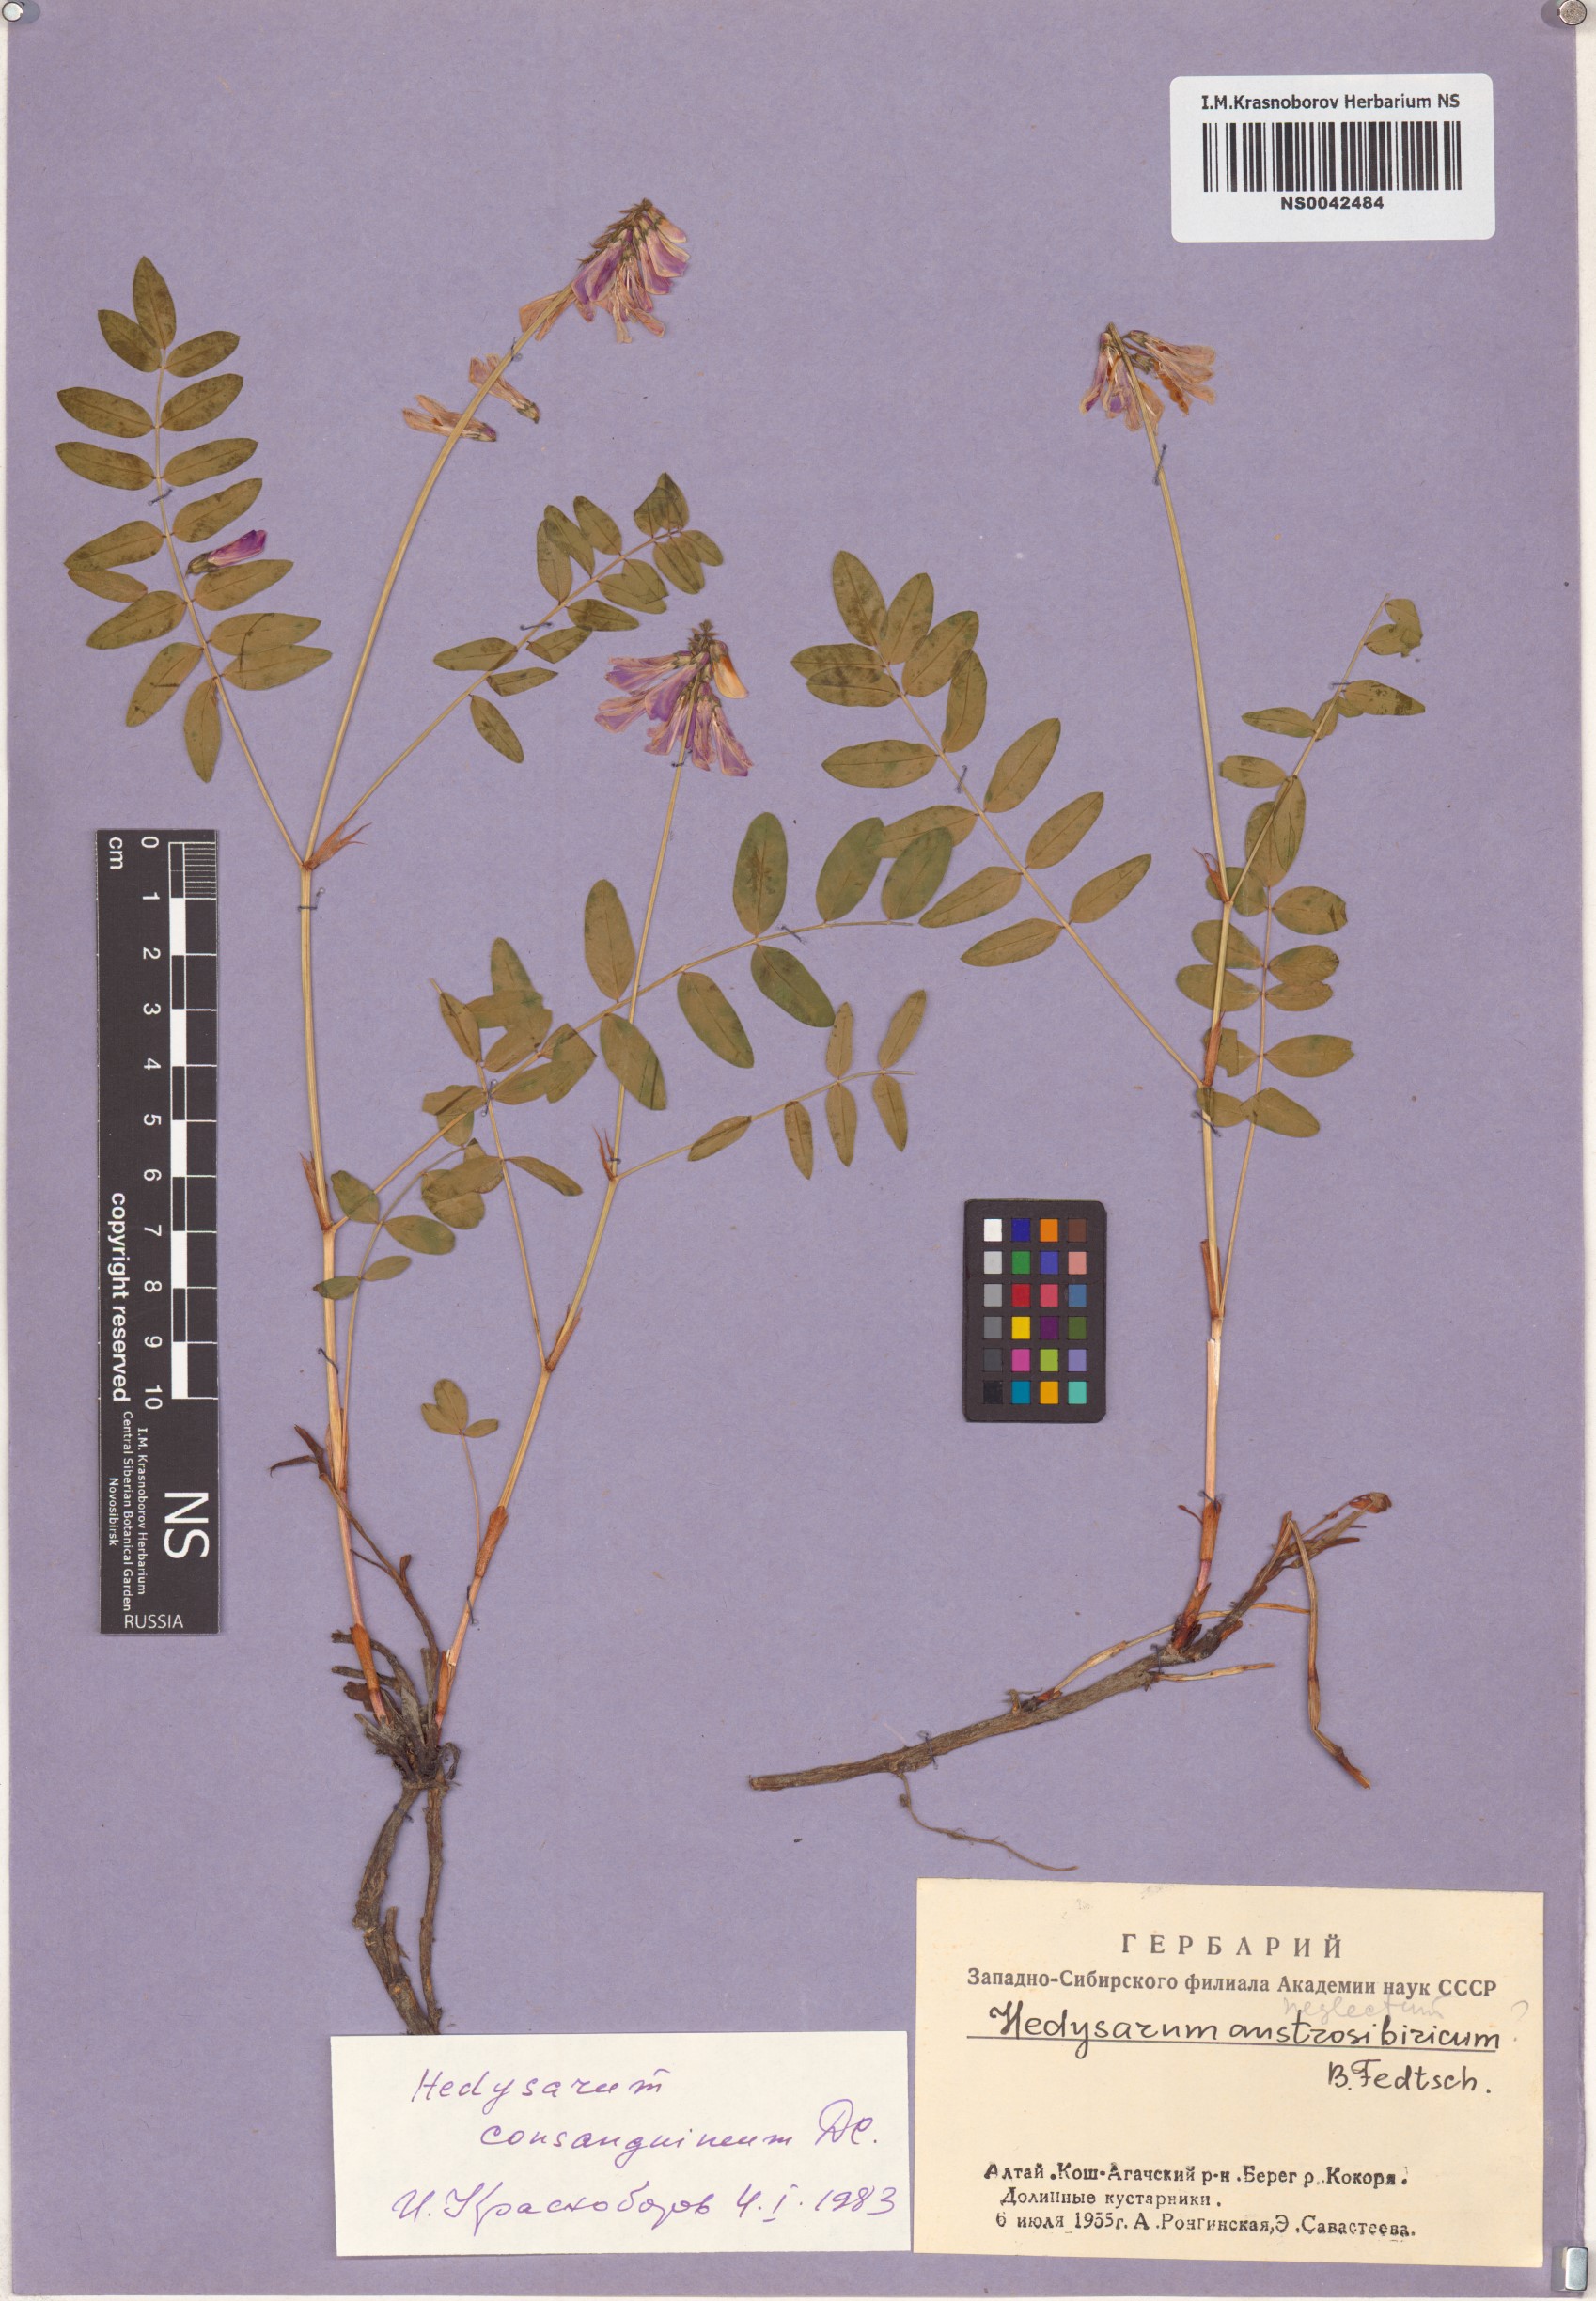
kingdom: Plantae
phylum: Tracheophyta
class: Magnoliopsida
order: Fabales
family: Fabaceae
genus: Hedysarum
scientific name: Hedysarum consanguineum
